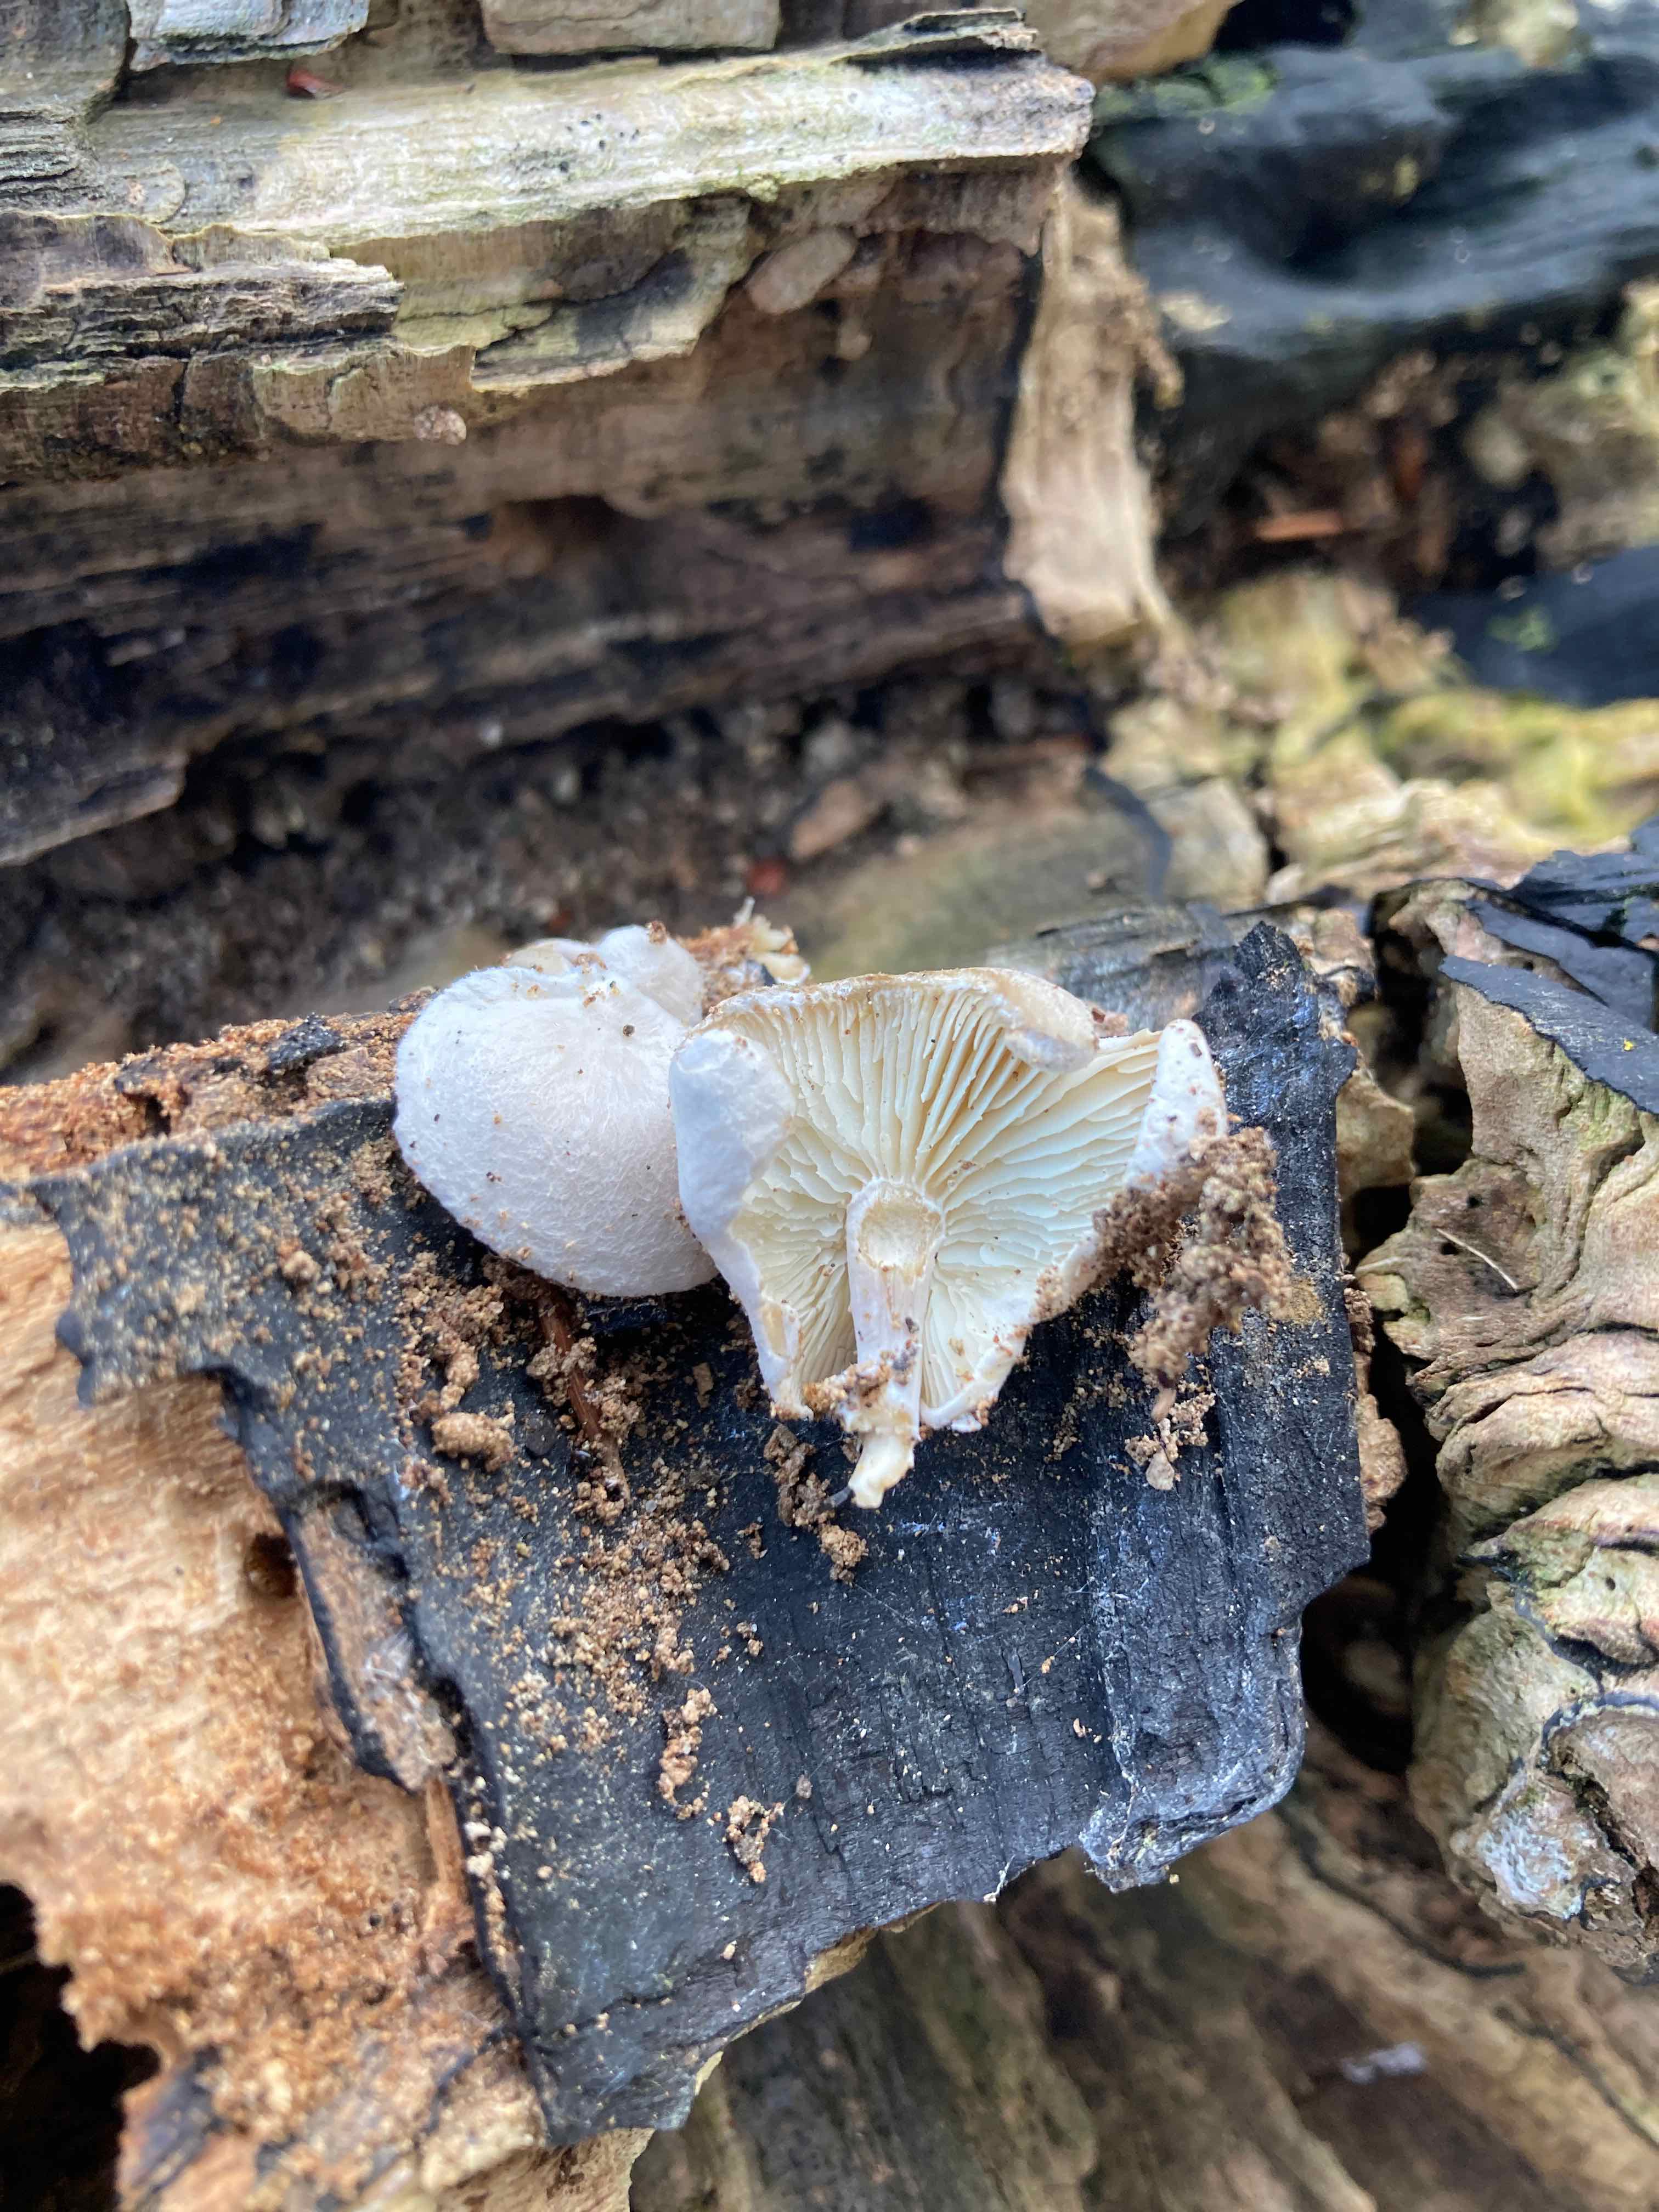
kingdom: Fungi
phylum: Basidiomycota
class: Agaricomycetes
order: Agaricales
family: Lyophyllaceae
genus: Ossicaulis
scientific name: Ossicaulis lignatilis
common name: hvidlig vedtragthat
